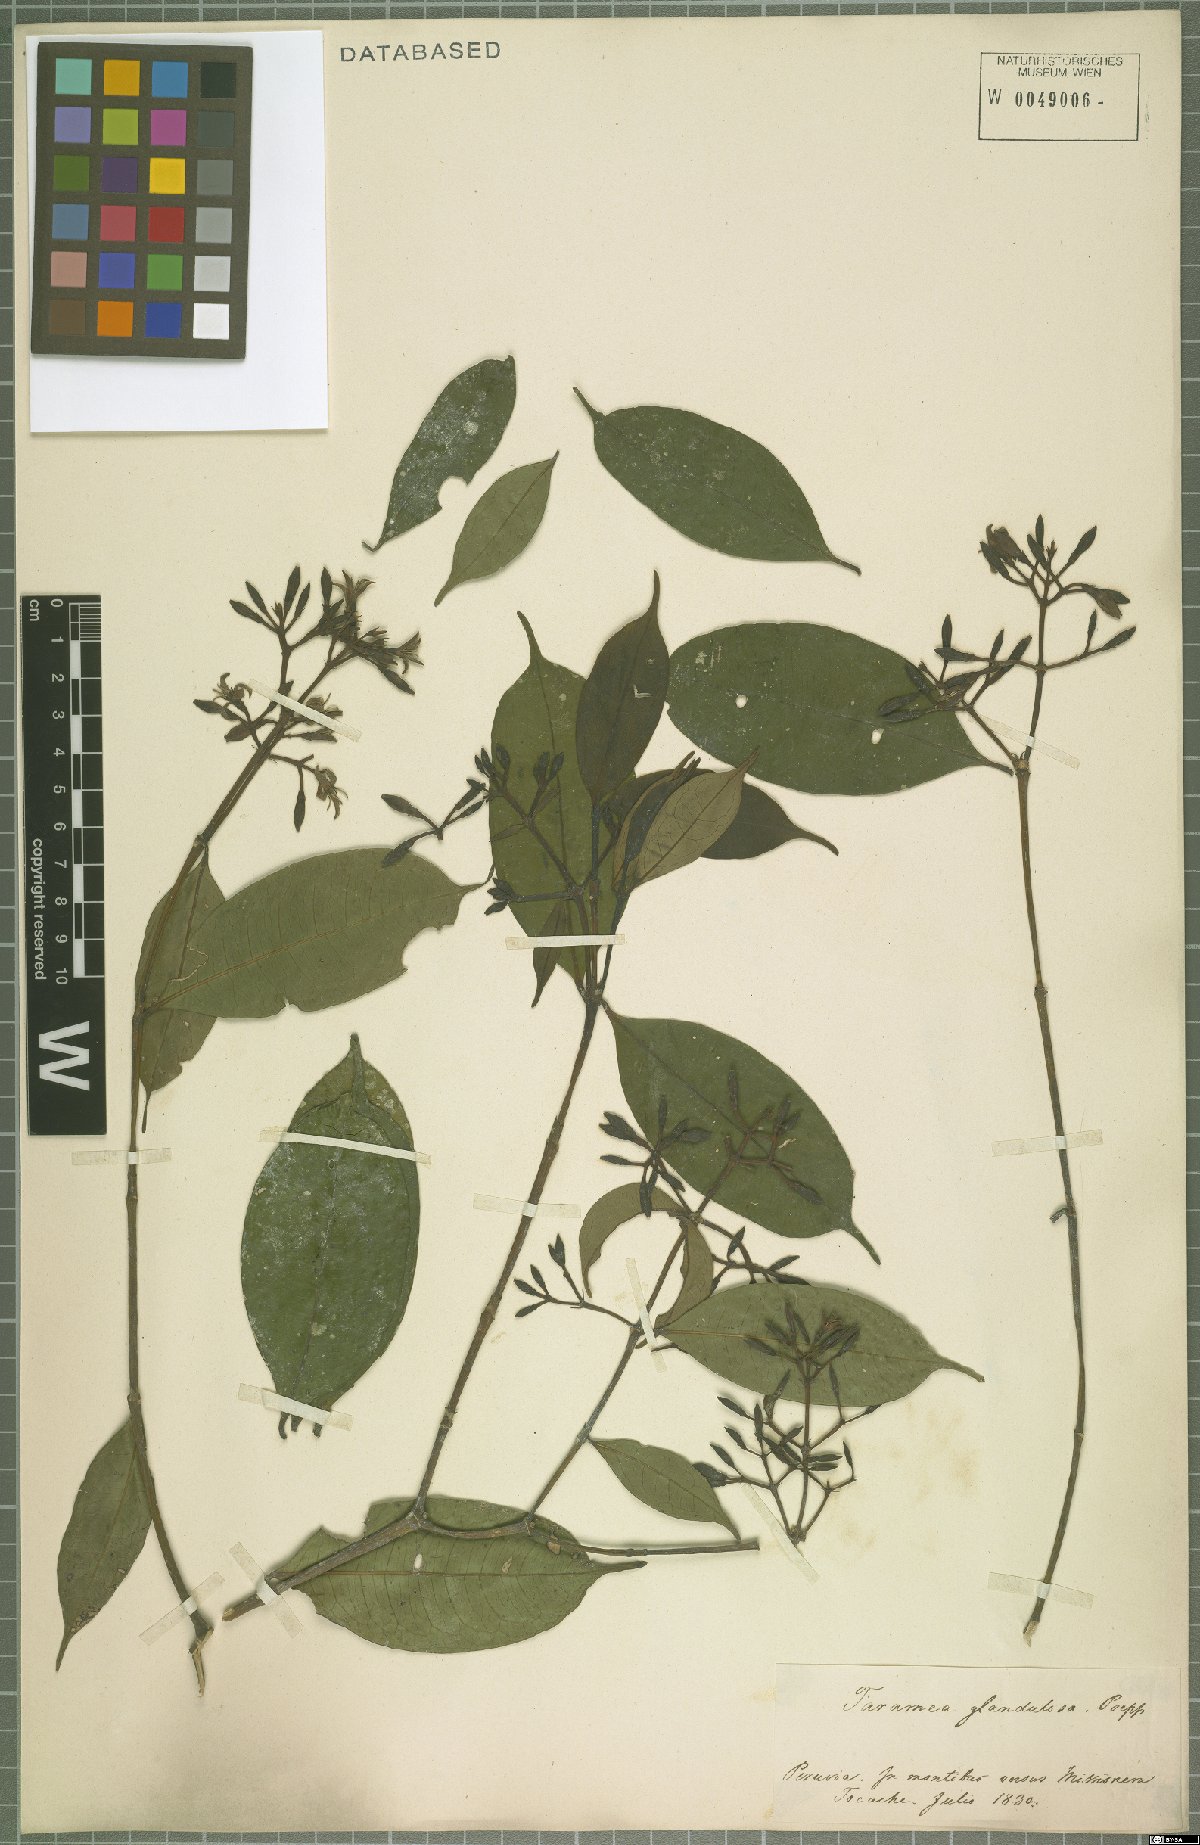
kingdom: Plantae
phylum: Tracheophyta
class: Magnoliopsida
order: Gentianales
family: Rubiaceae
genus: Faramea
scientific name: Faramea glandulosa
